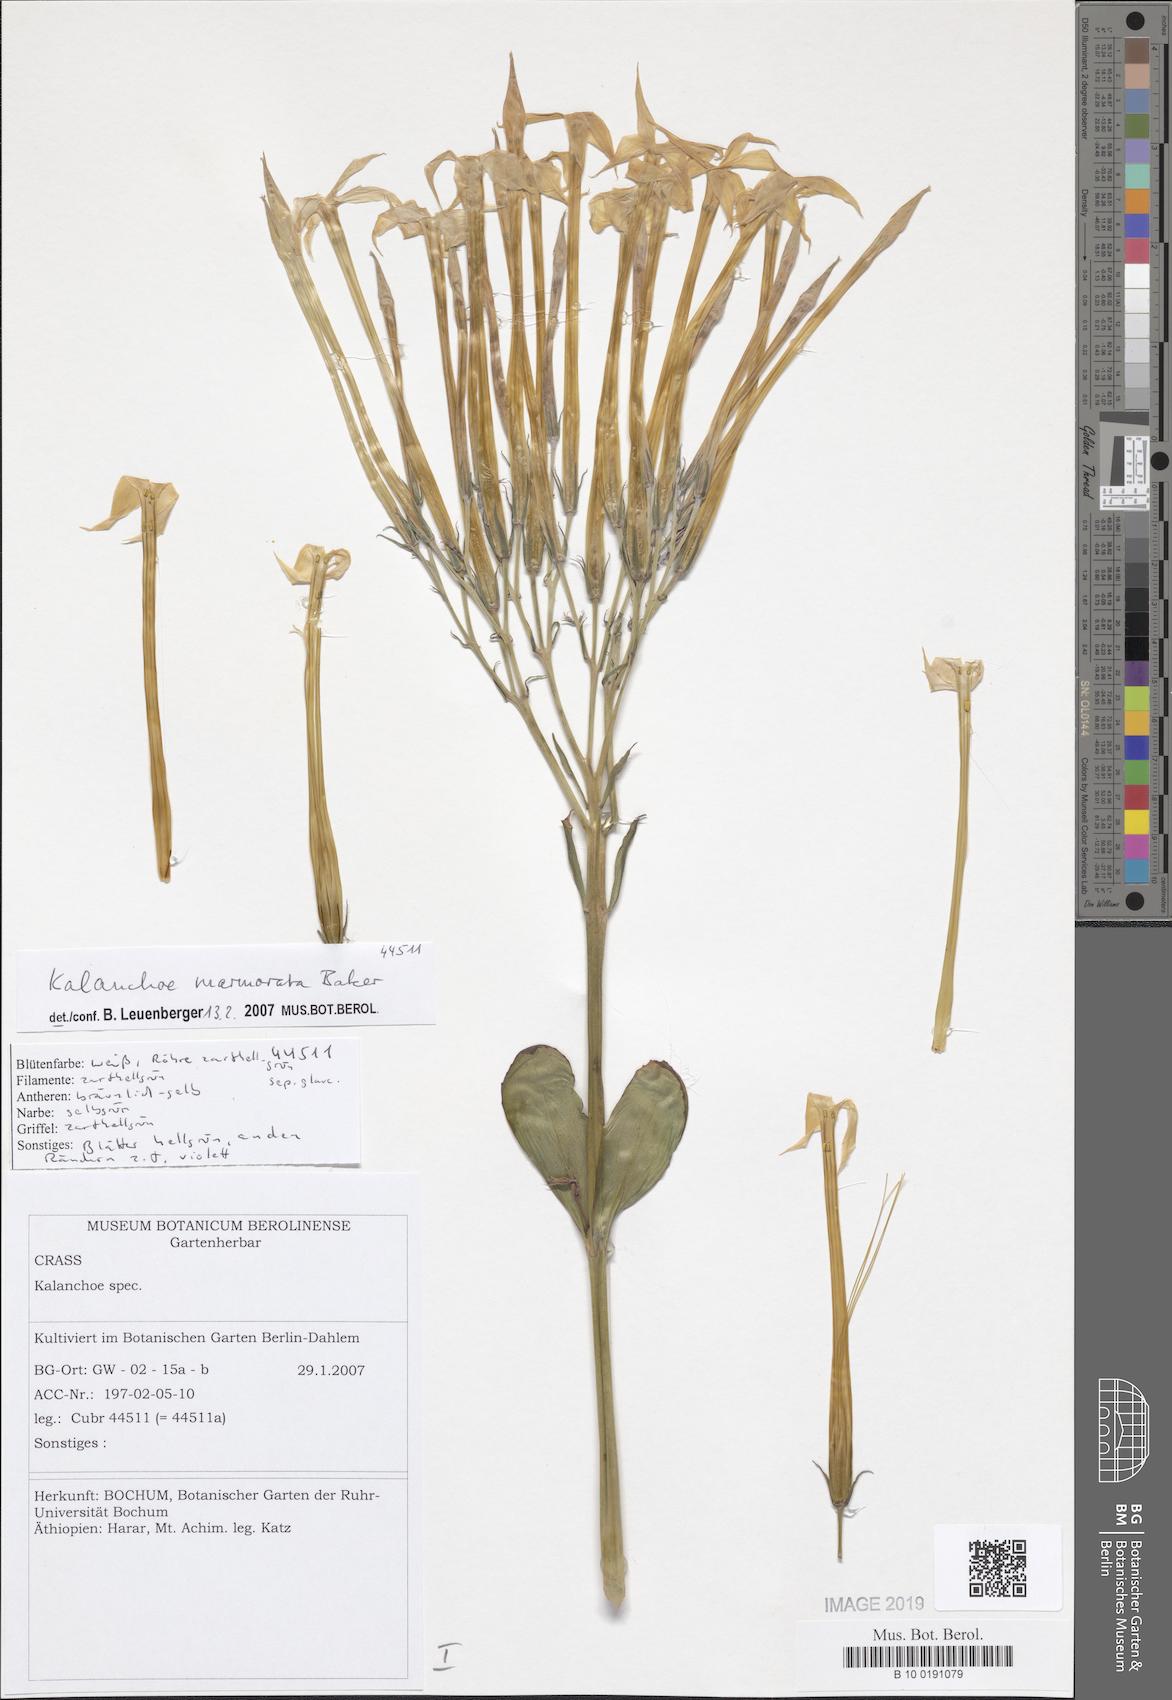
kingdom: Plantae
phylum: Tracheophyta
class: Magnoliopsida
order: Saxifragales
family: Crassulaceae
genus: Kalanchoe
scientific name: Kalanchoe marmorata
